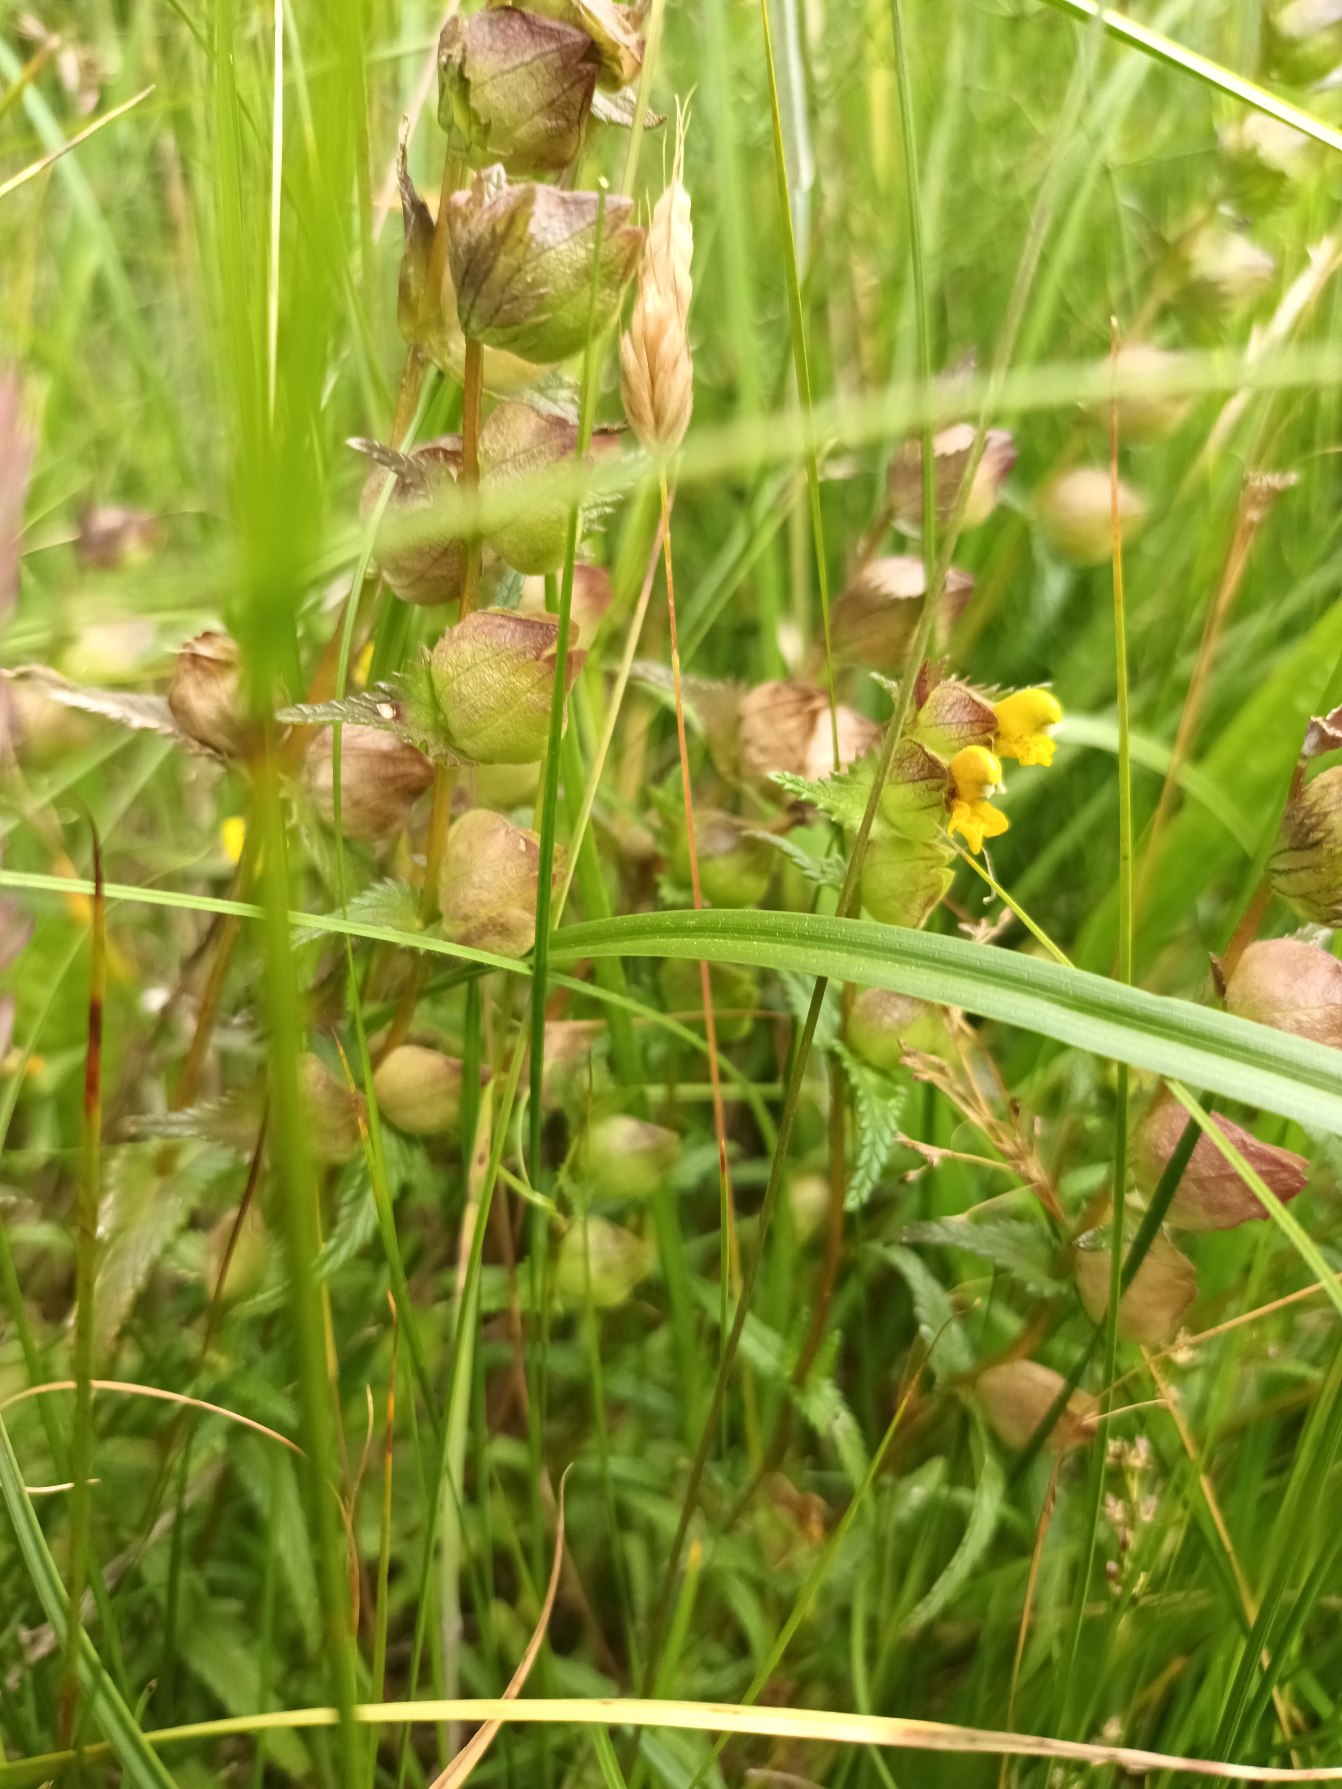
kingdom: Plantae
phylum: Tracheophyta
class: Magnoliopsida
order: Lamiales
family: Orobanchaceae
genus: Rhinanthus
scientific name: Rhinanthus minor
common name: Liden skjaller
